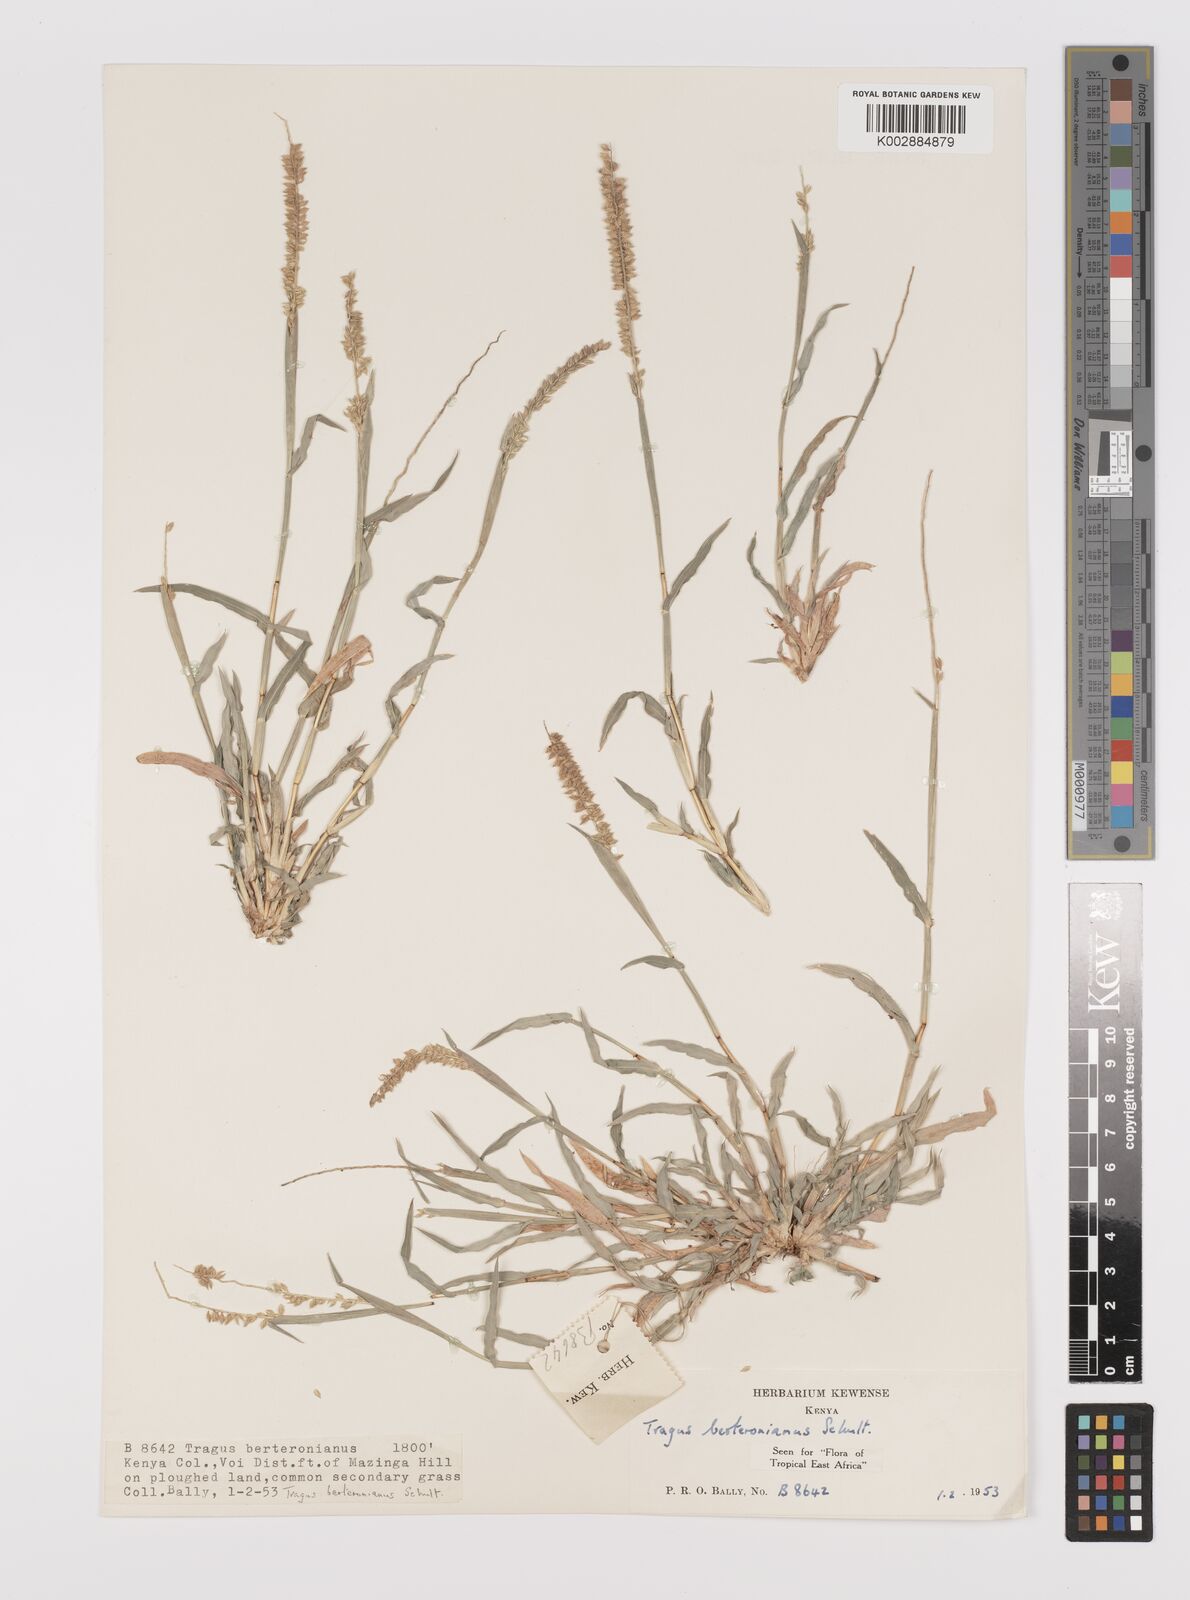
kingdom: Plantae
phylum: Tracheophyta
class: Liliopsida
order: Poales
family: Poaceae
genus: Tragus
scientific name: Tragus berteronianus
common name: African bur-grass
